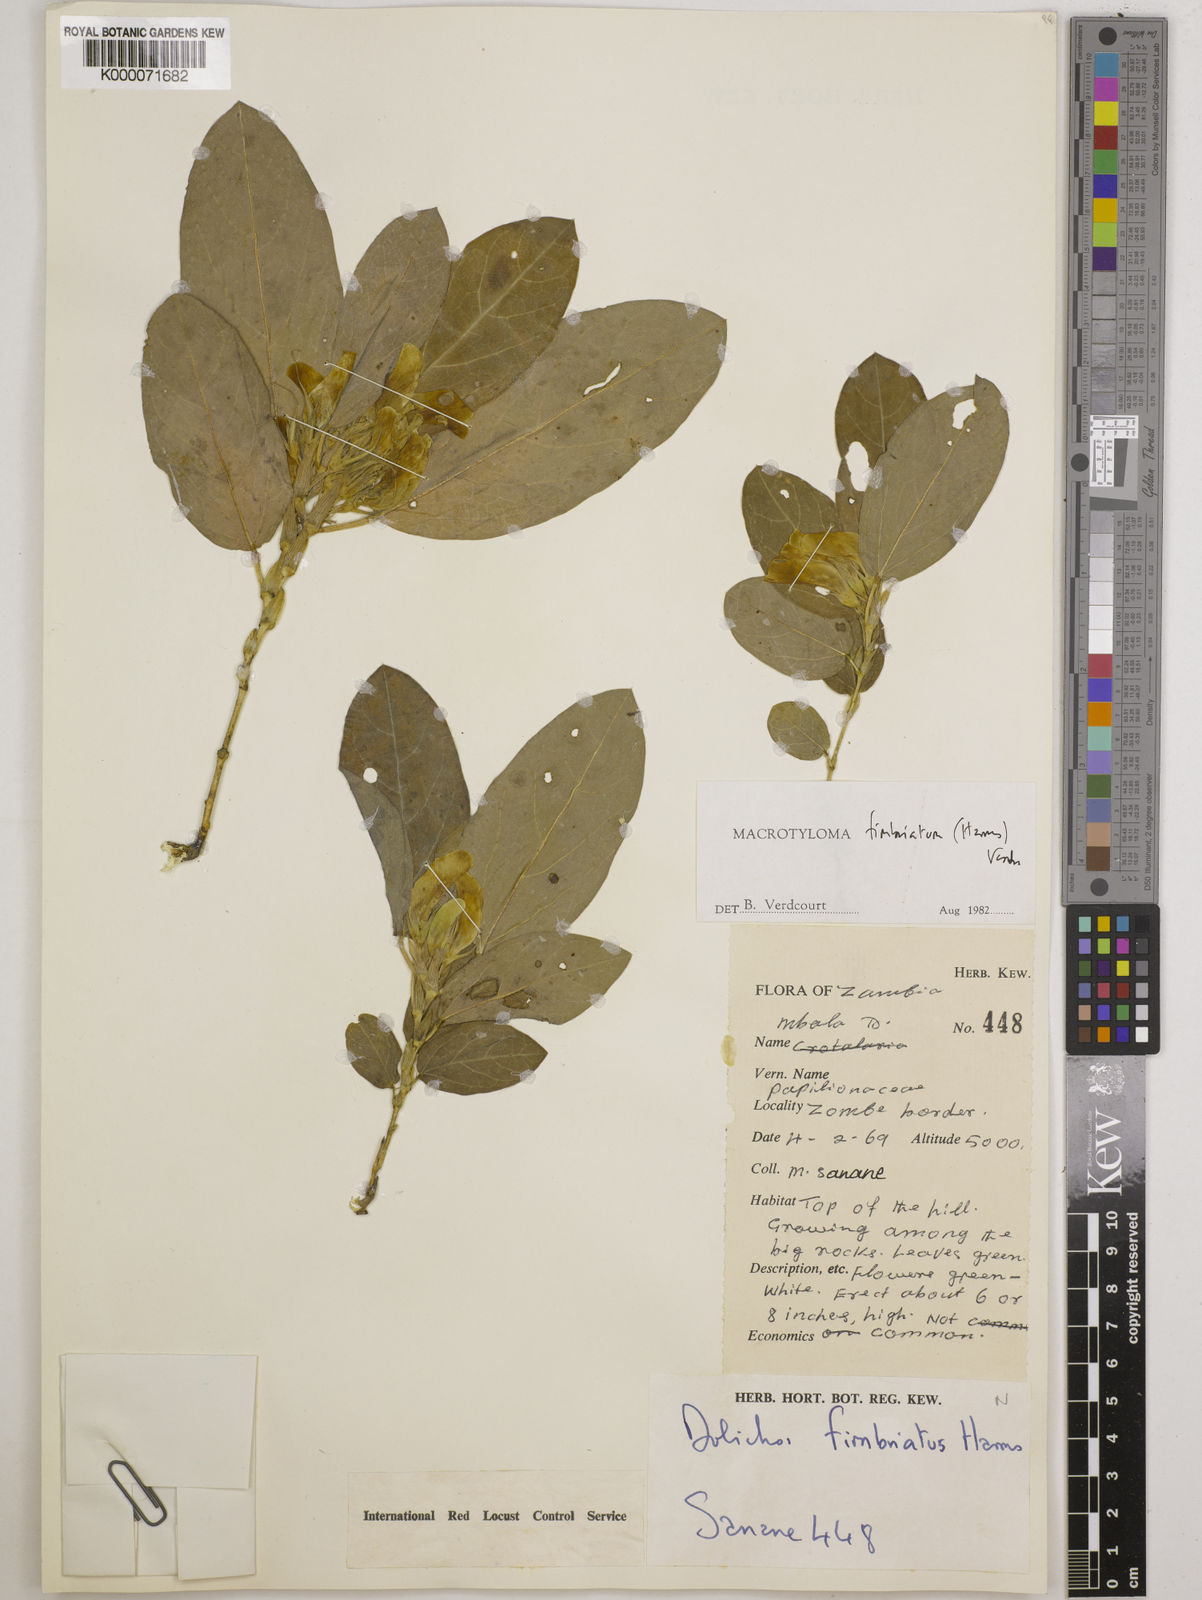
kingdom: Plantae
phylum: Tracheophyta
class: Magnoliopsida
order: Fabales
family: Fabaceae
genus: Macrotyloma
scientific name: Macrotyloma fimbriatum
